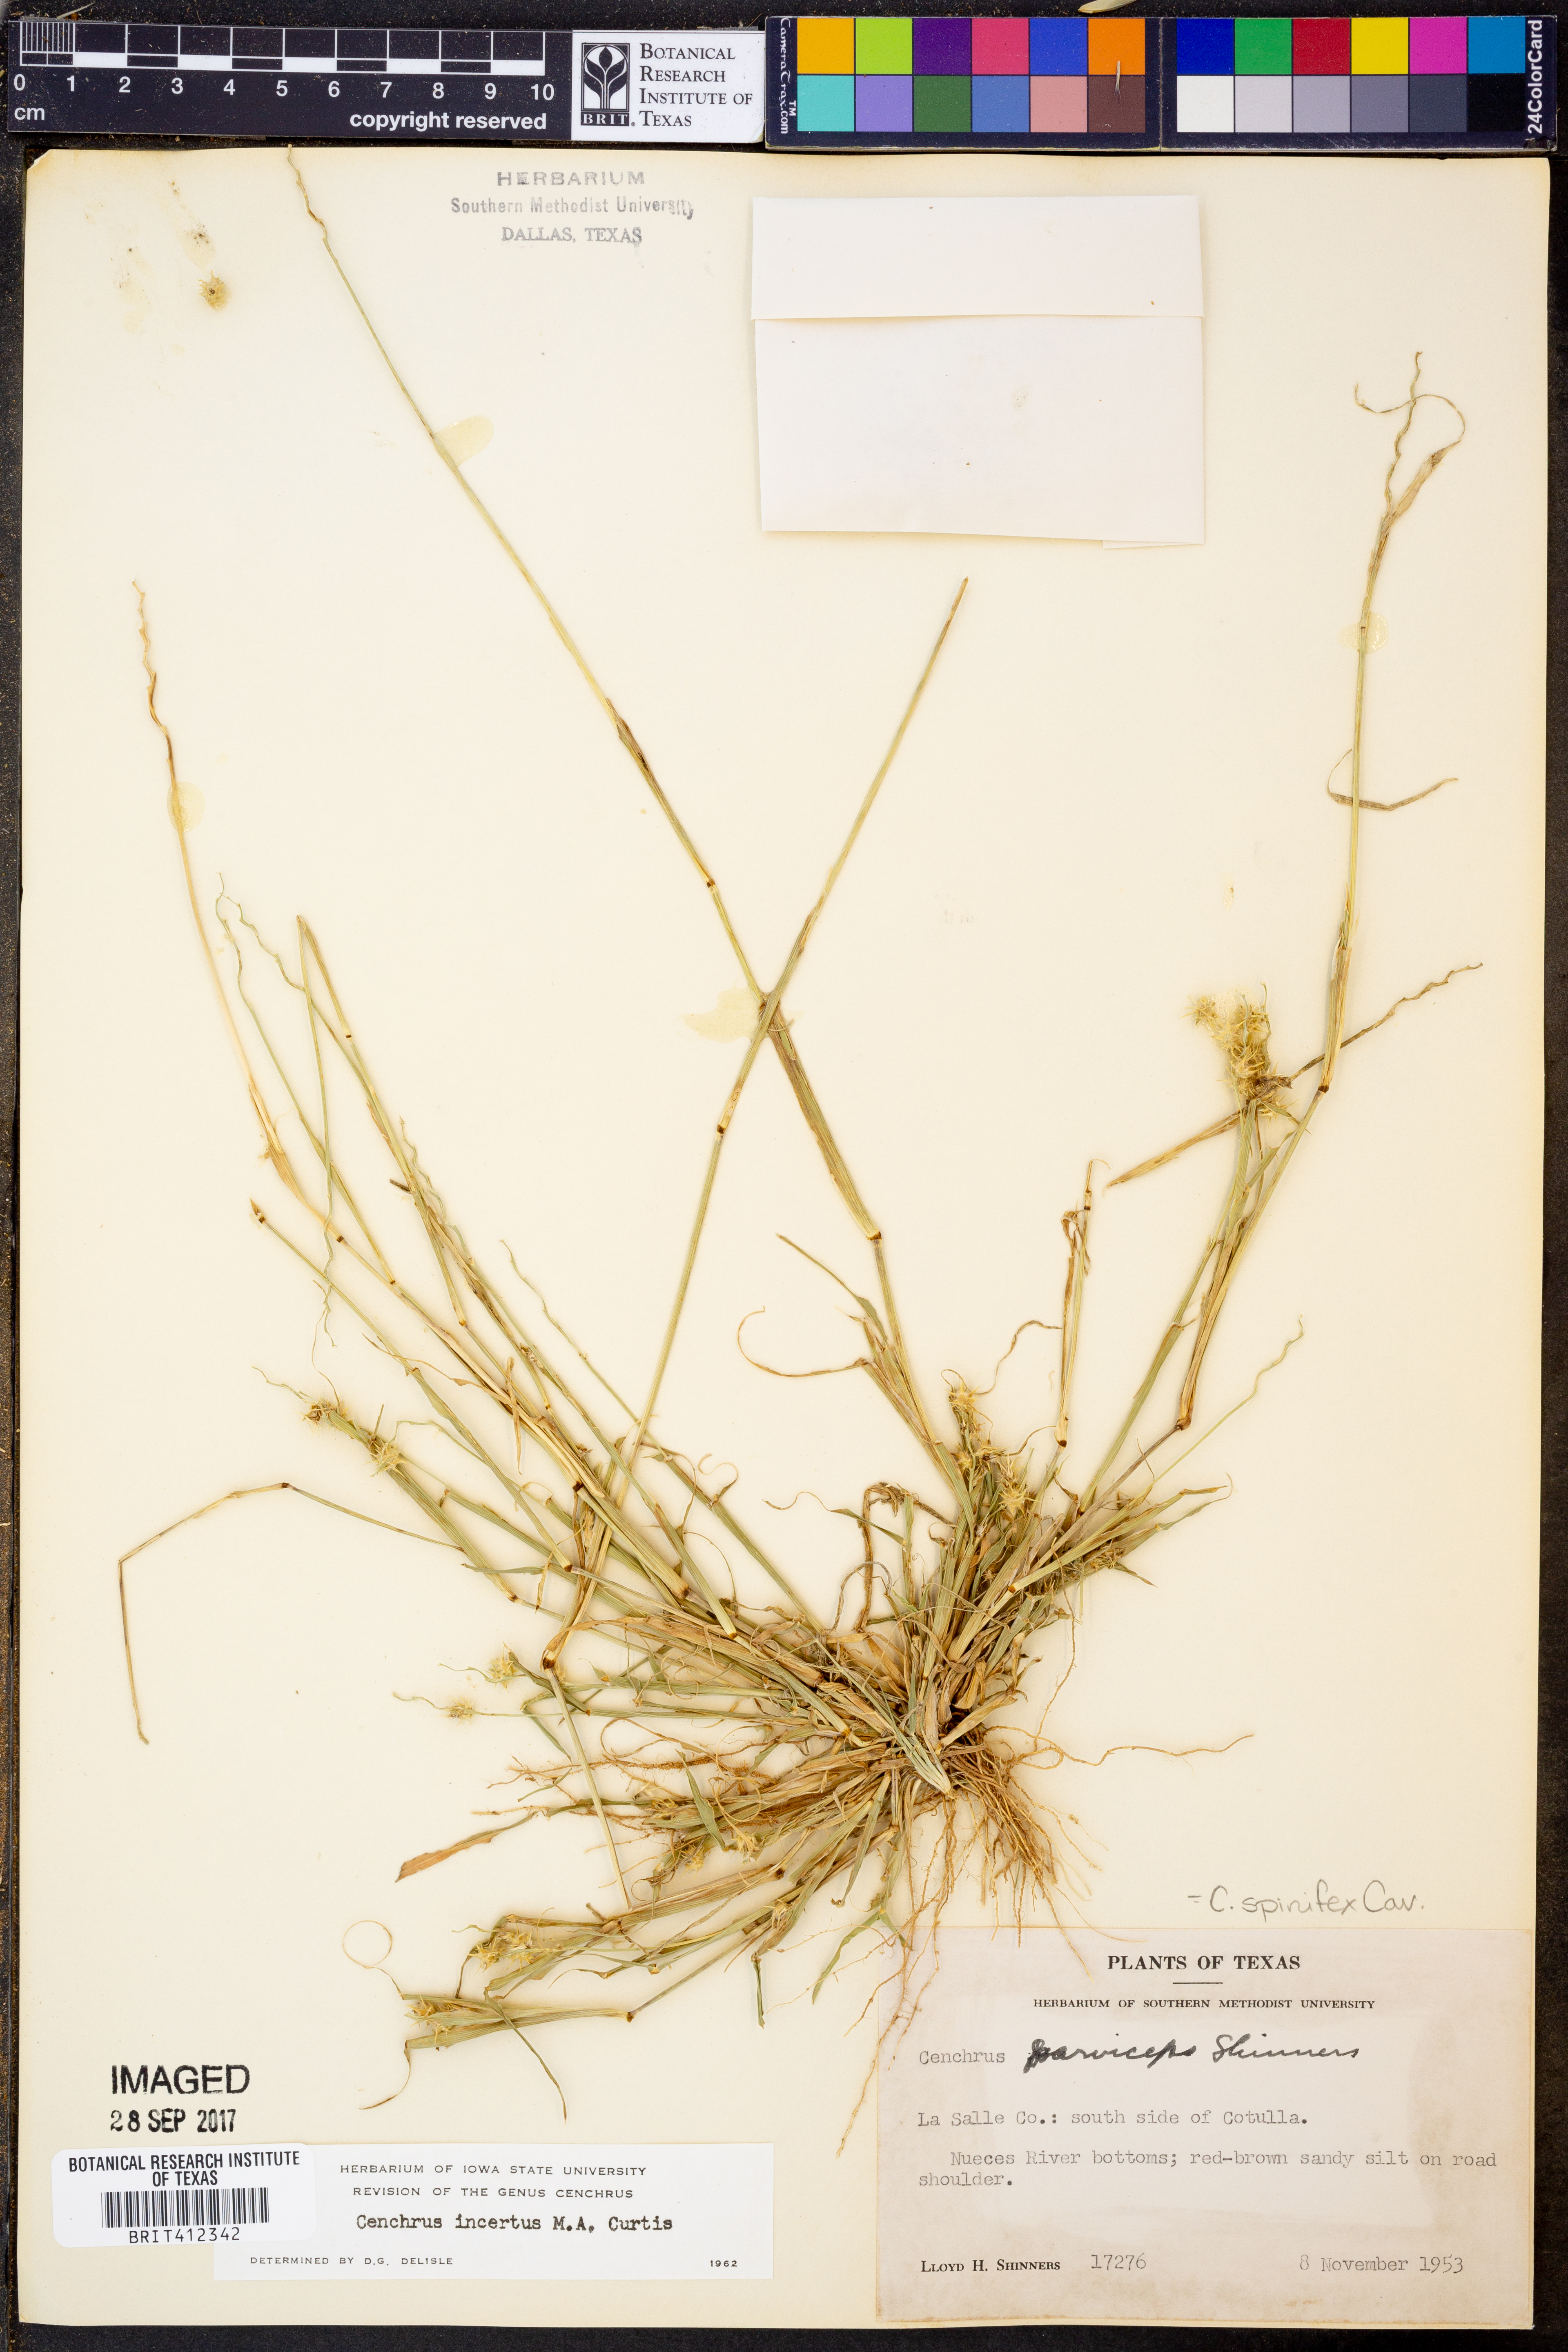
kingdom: Plantae
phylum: Tracheophyta
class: Liliopsida
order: Poales
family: Poaceae
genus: Cenchrus
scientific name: Cenchrus spinifex
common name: Coast sandbur
